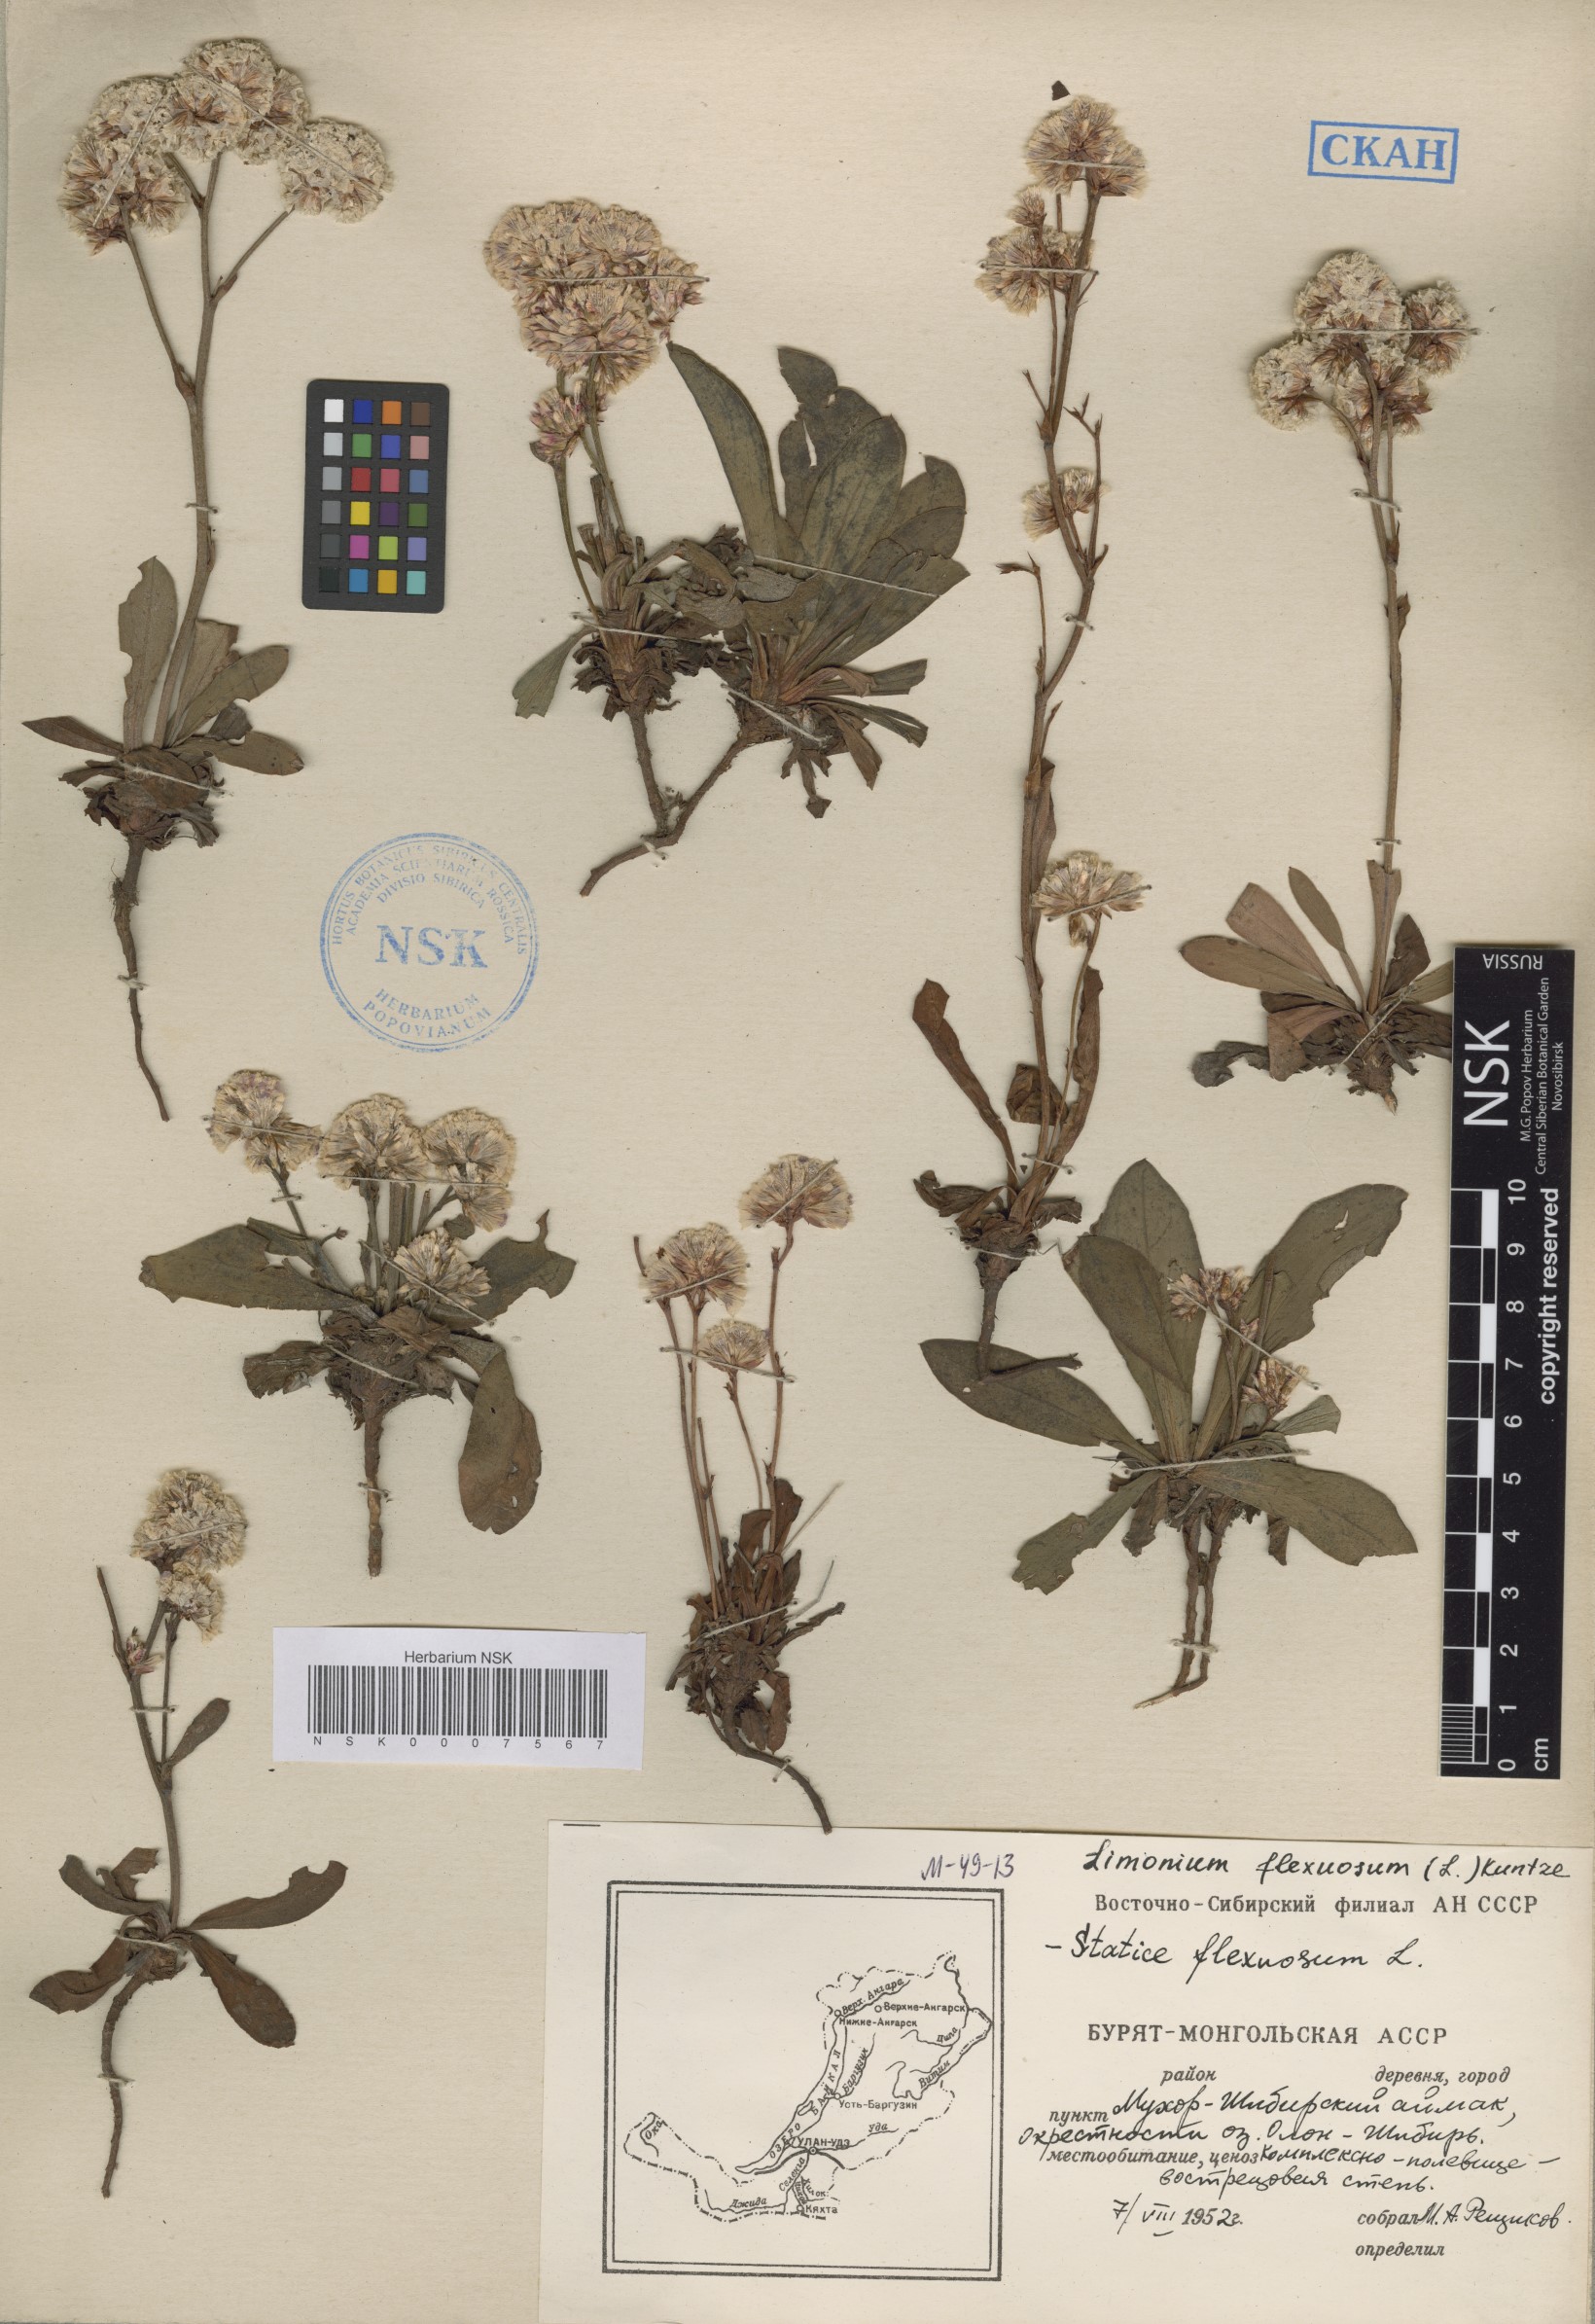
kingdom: Plantae
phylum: Tracheophyta
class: Magnoliopsida
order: Caryophyllales
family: Plumbaginaceae
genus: Limonium
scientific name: Limonium flexuosum
